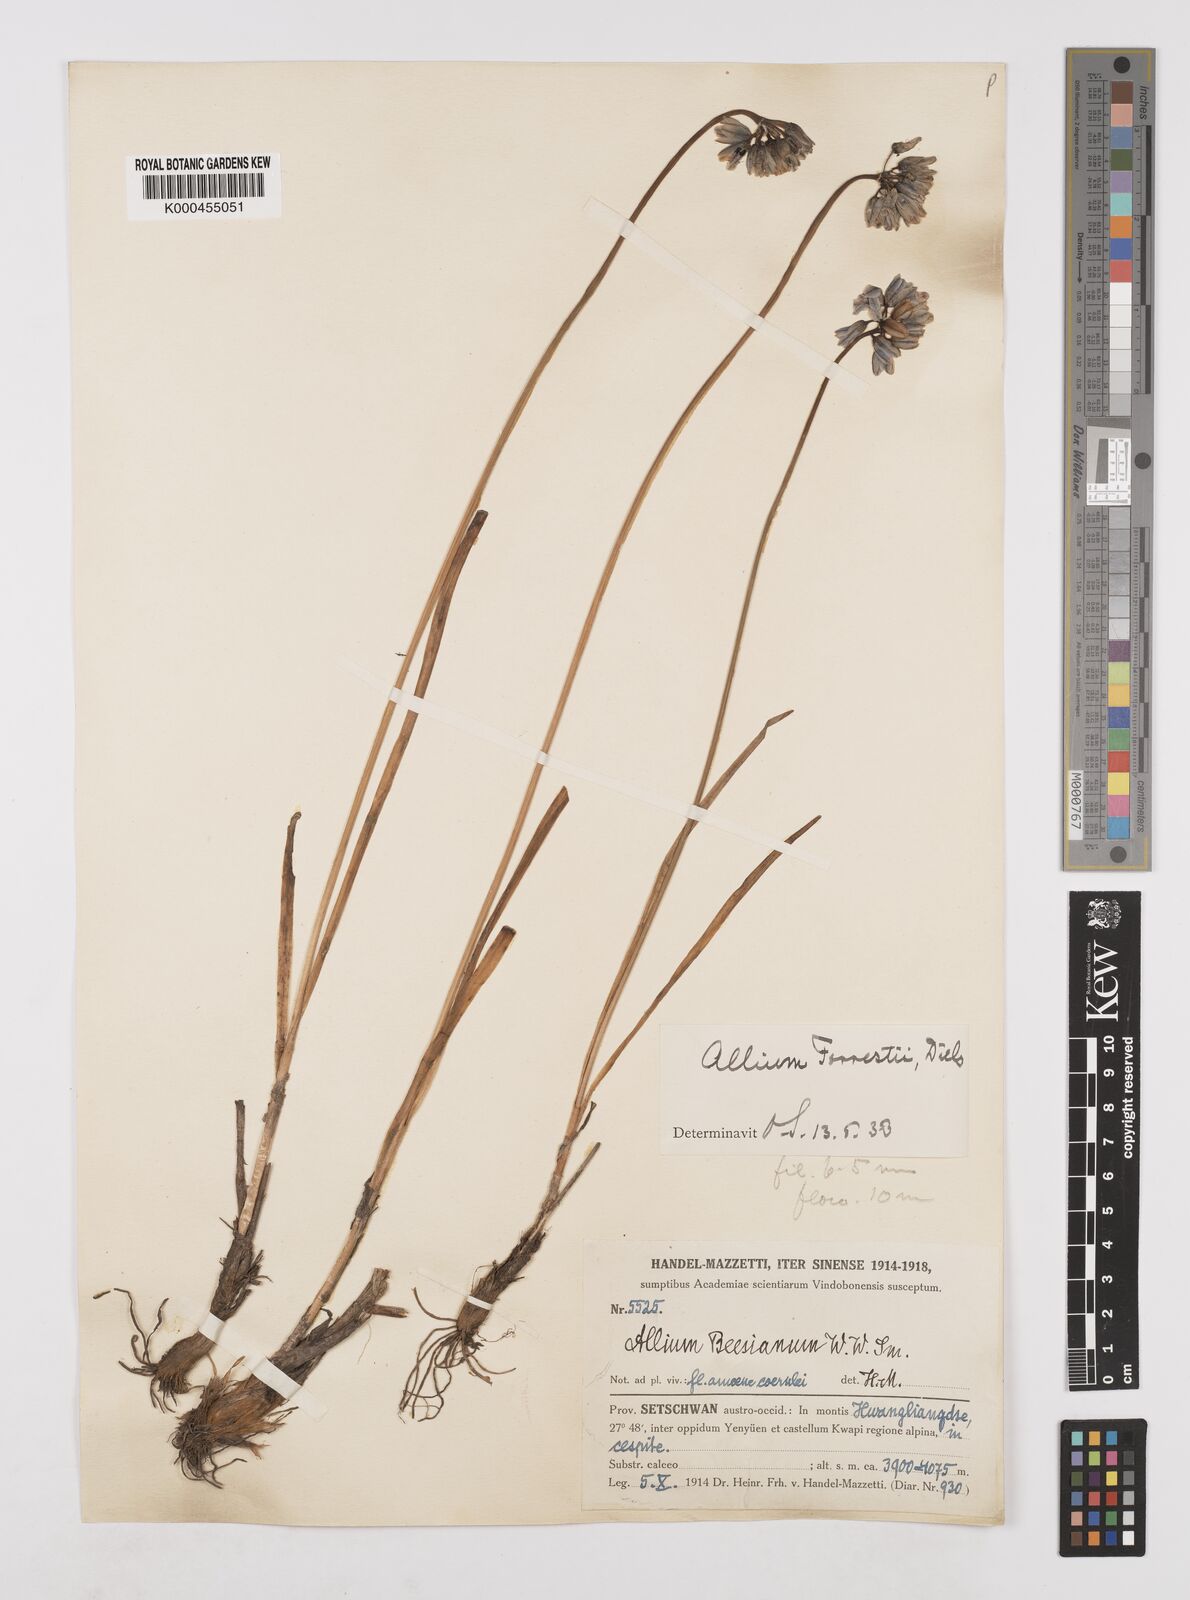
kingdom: Plantae
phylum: Tracheophyta
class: Liliopsida
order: Asparagales
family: Amaryllidaceae
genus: Allium
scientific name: Allium beesianum
